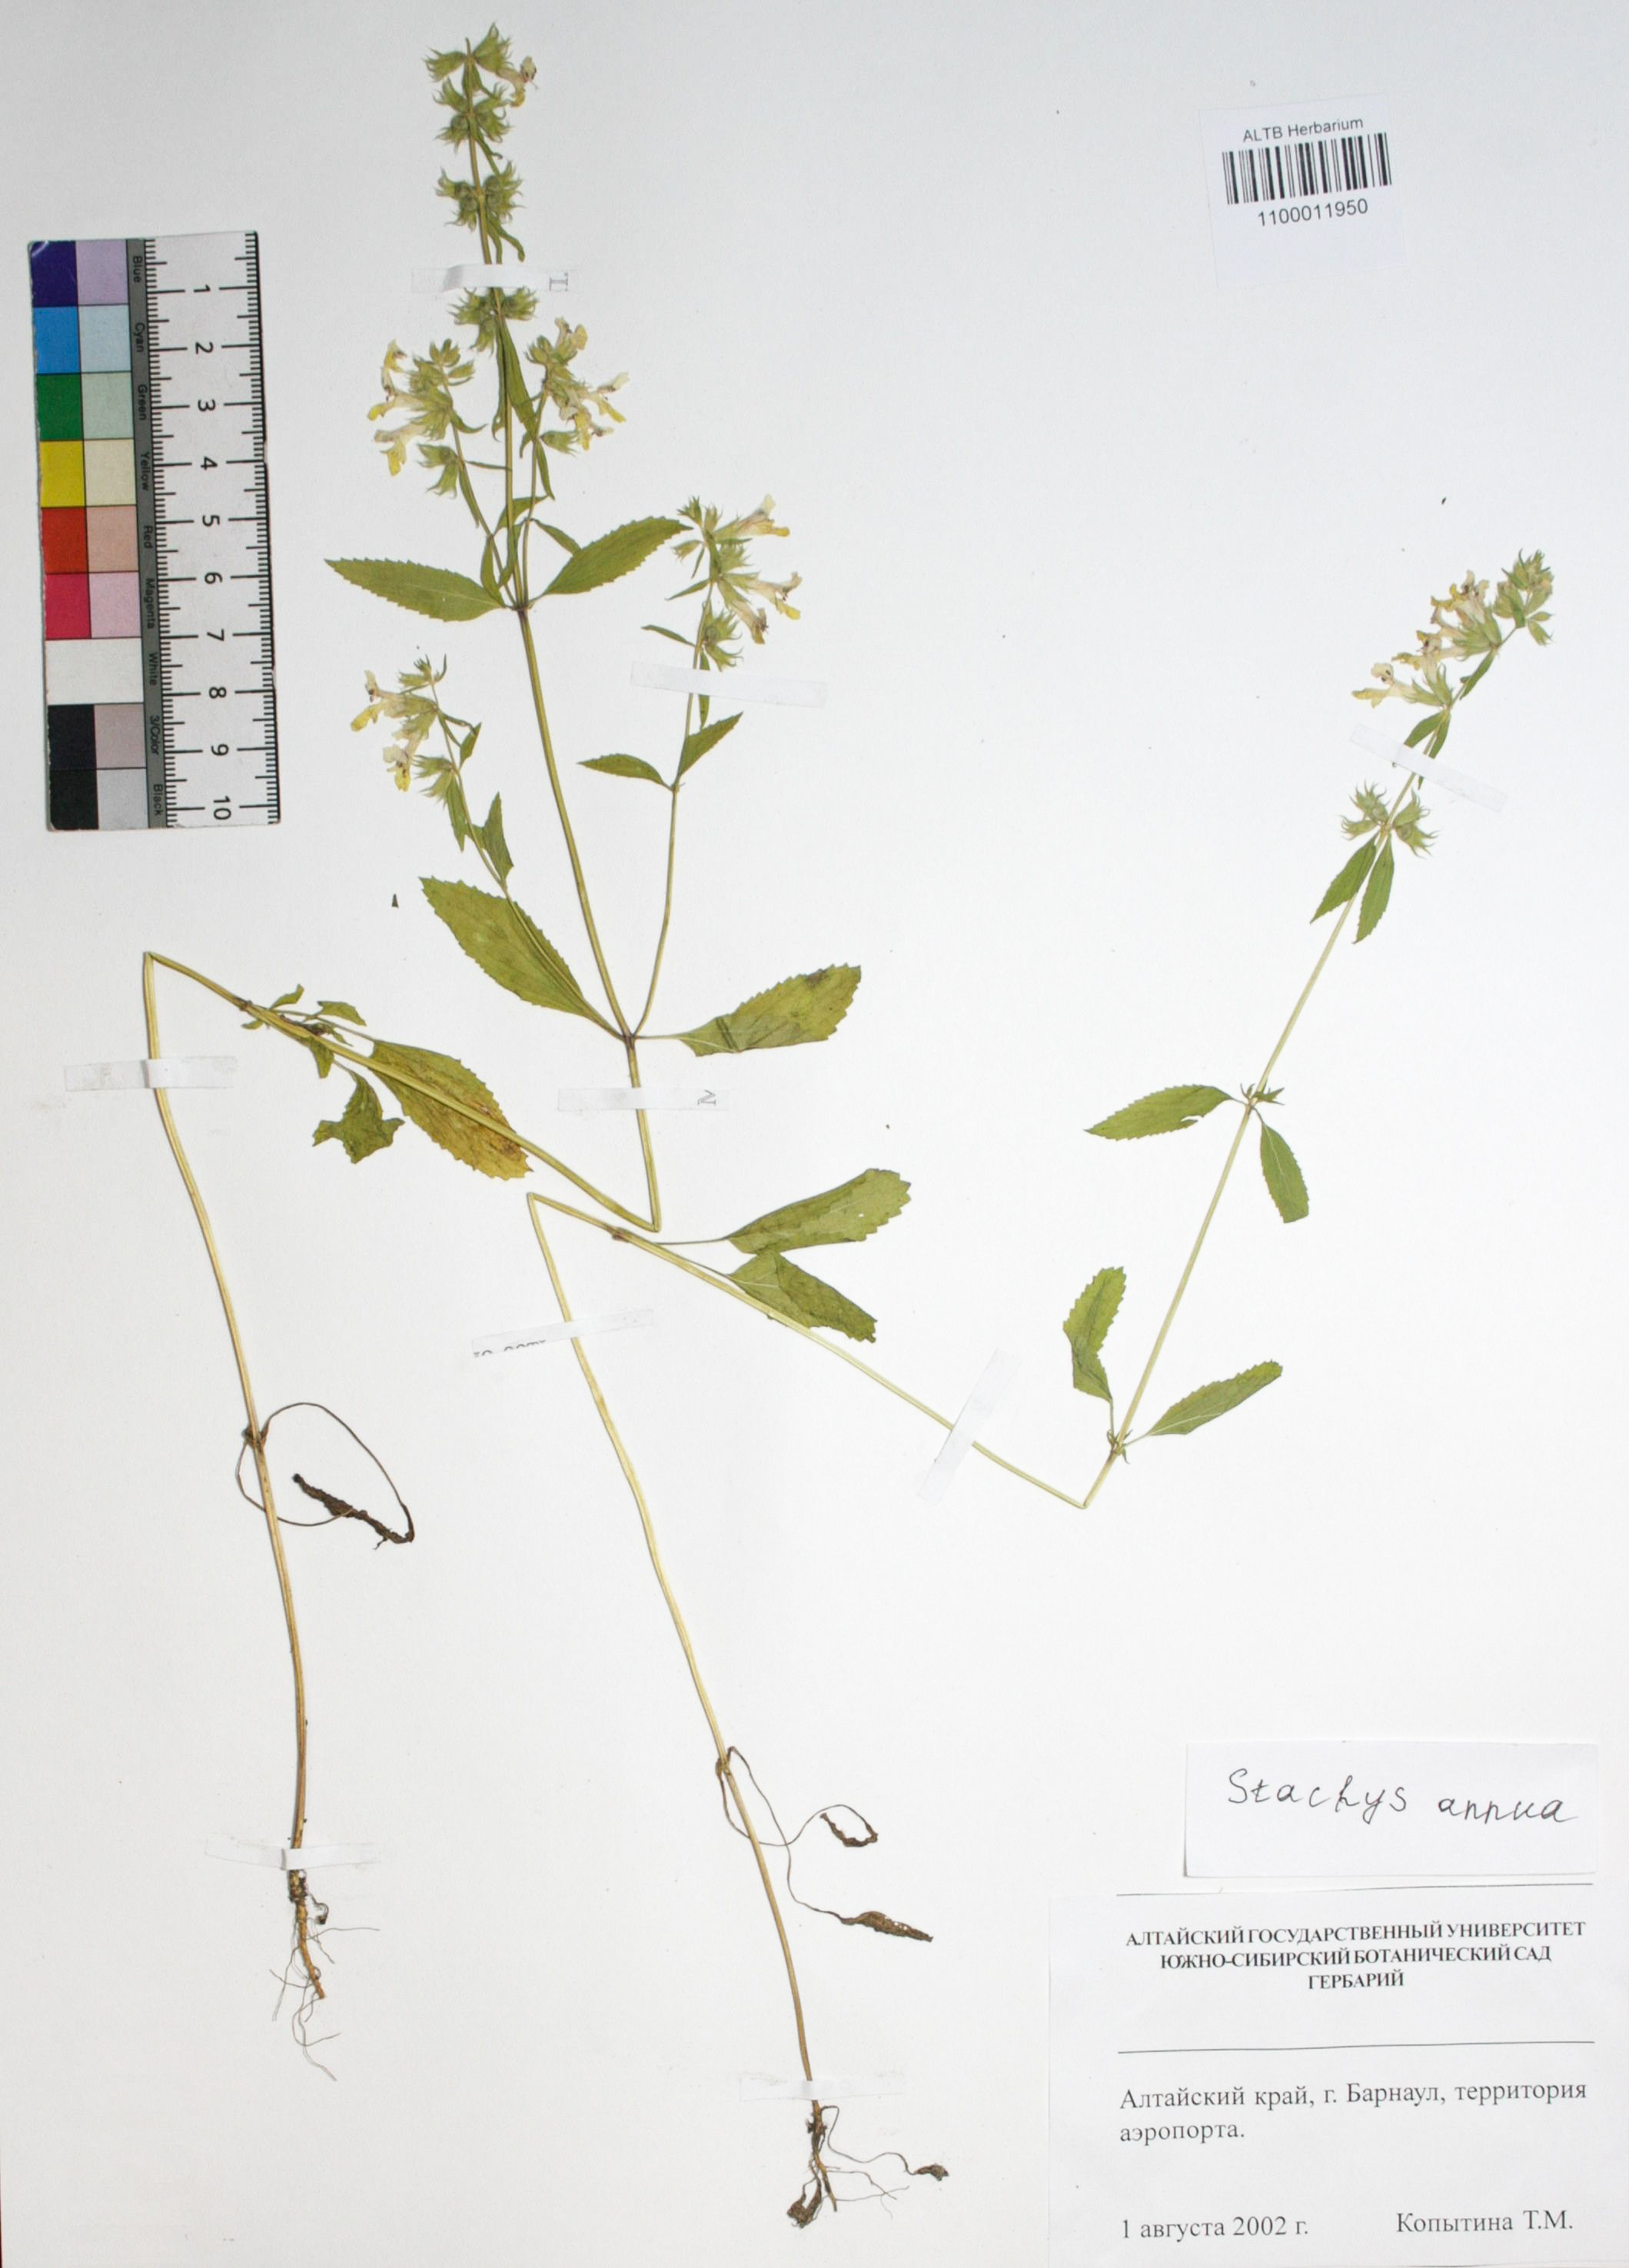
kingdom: Plantae
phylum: Tracheophyta
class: Magnoliopsida
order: Lamiales
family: Lamiaceae
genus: Stachys
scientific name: Stachys annua
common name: Annual yellow-woundwort
